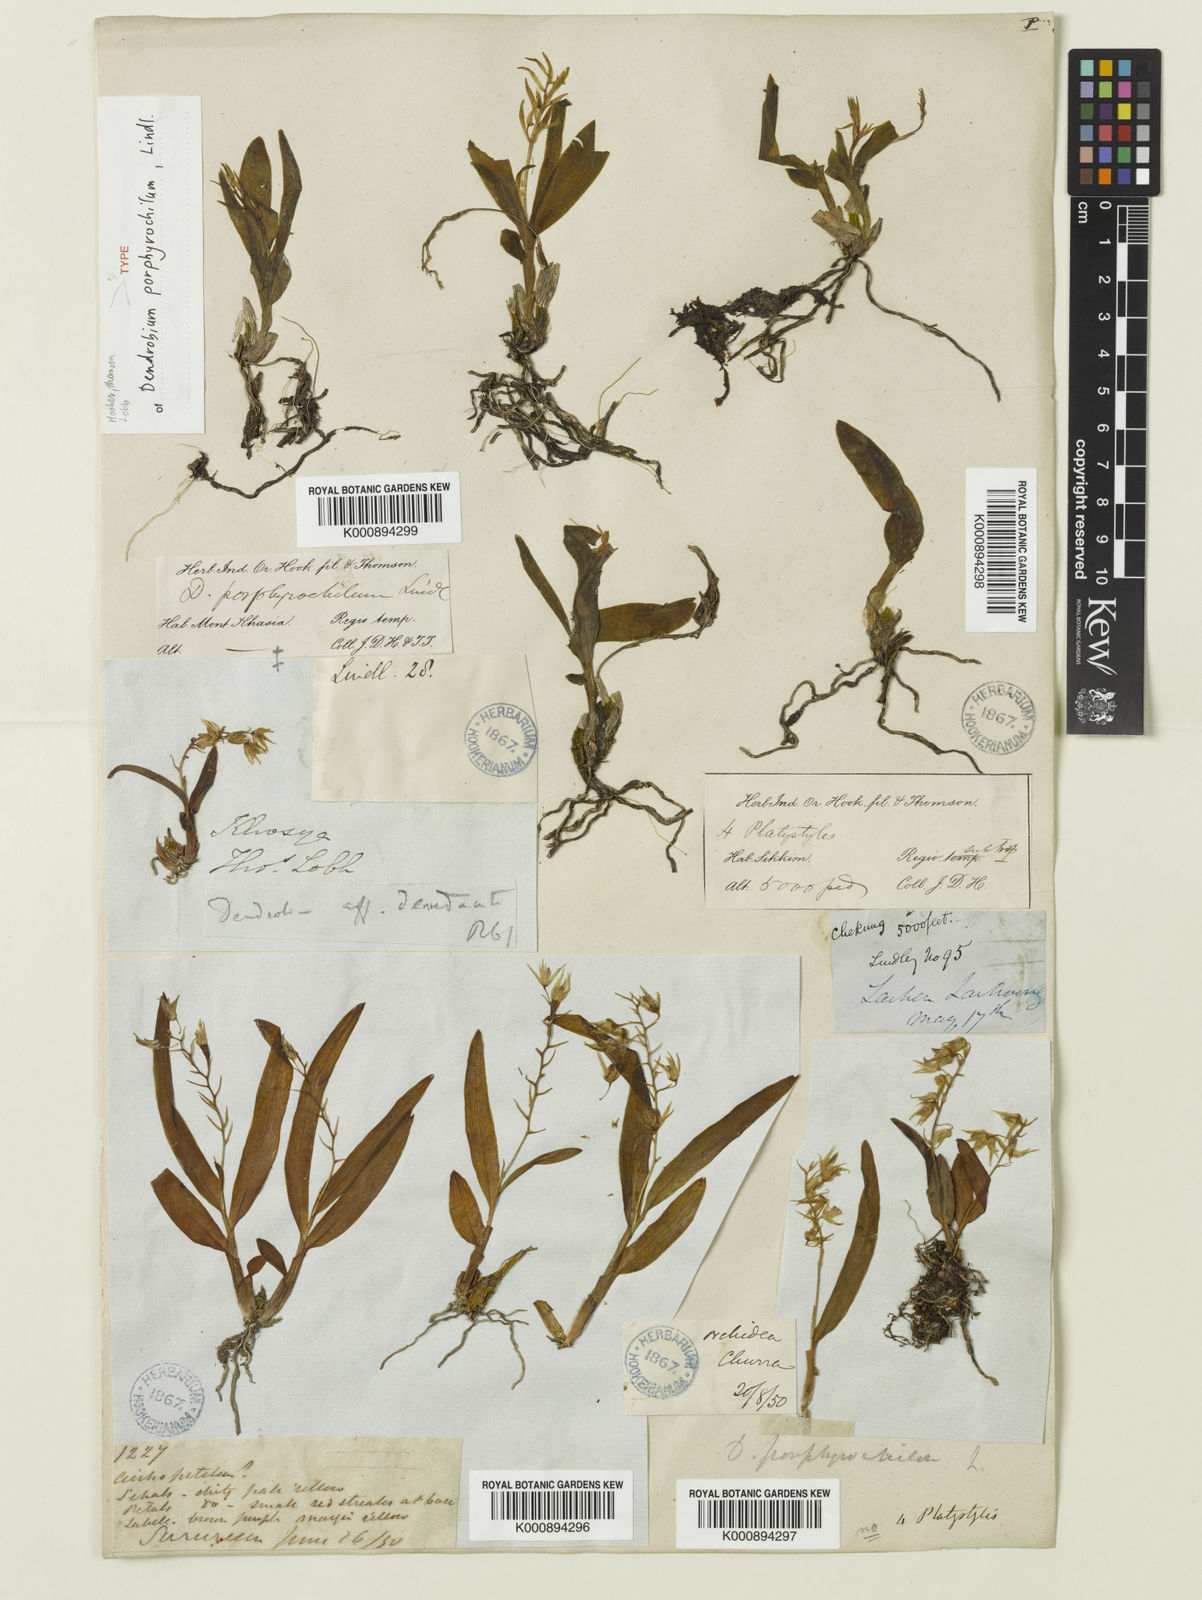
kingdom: Plantae
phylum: Tracheophyta
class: Liliopsida
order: Asparagales
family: Orchidaceae
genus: Dendrobium
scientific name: Dendrobium porphyrochilum
